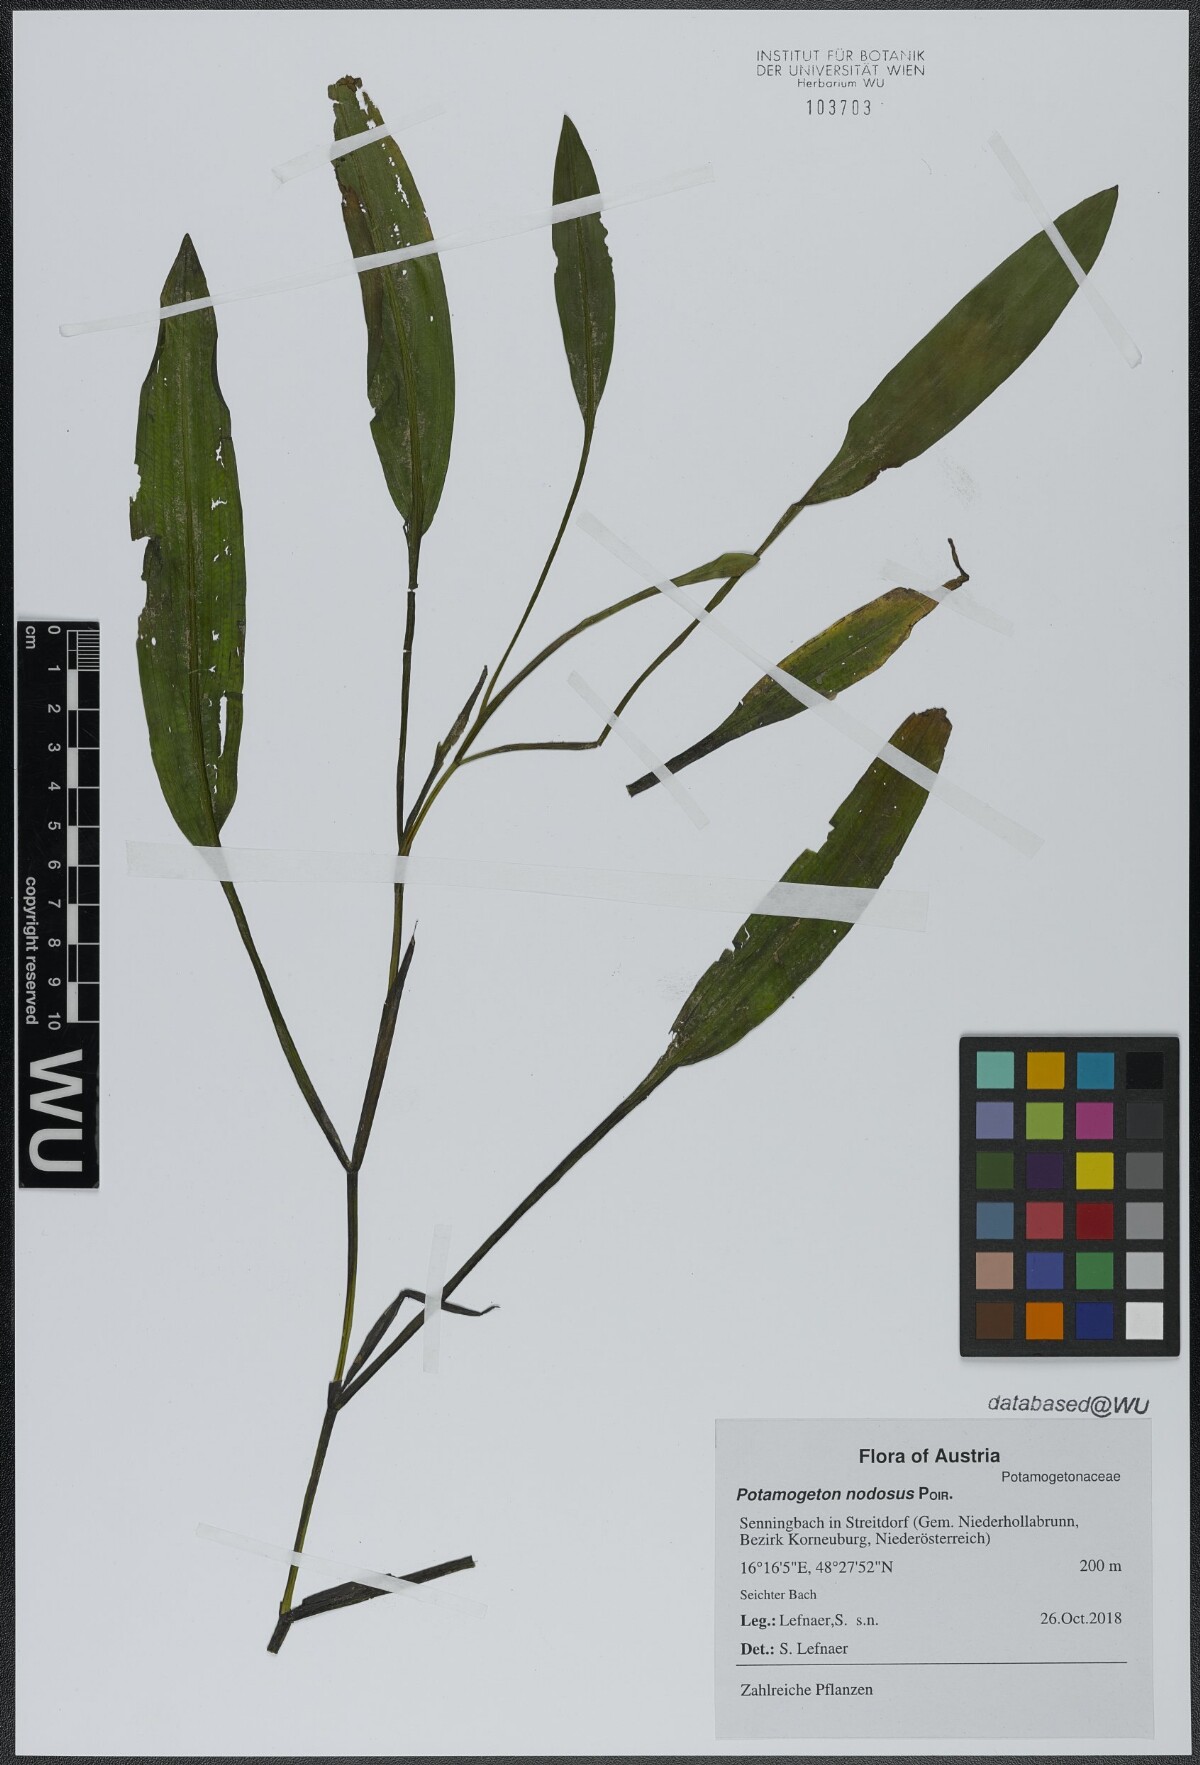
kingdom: Plantae
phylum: Tracheophyta
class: Liliopsida
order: Alismatales
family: Potamogetonaceae
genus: Potamogeton
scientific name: Potamogeton nodosus
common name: Loddon pondweed
